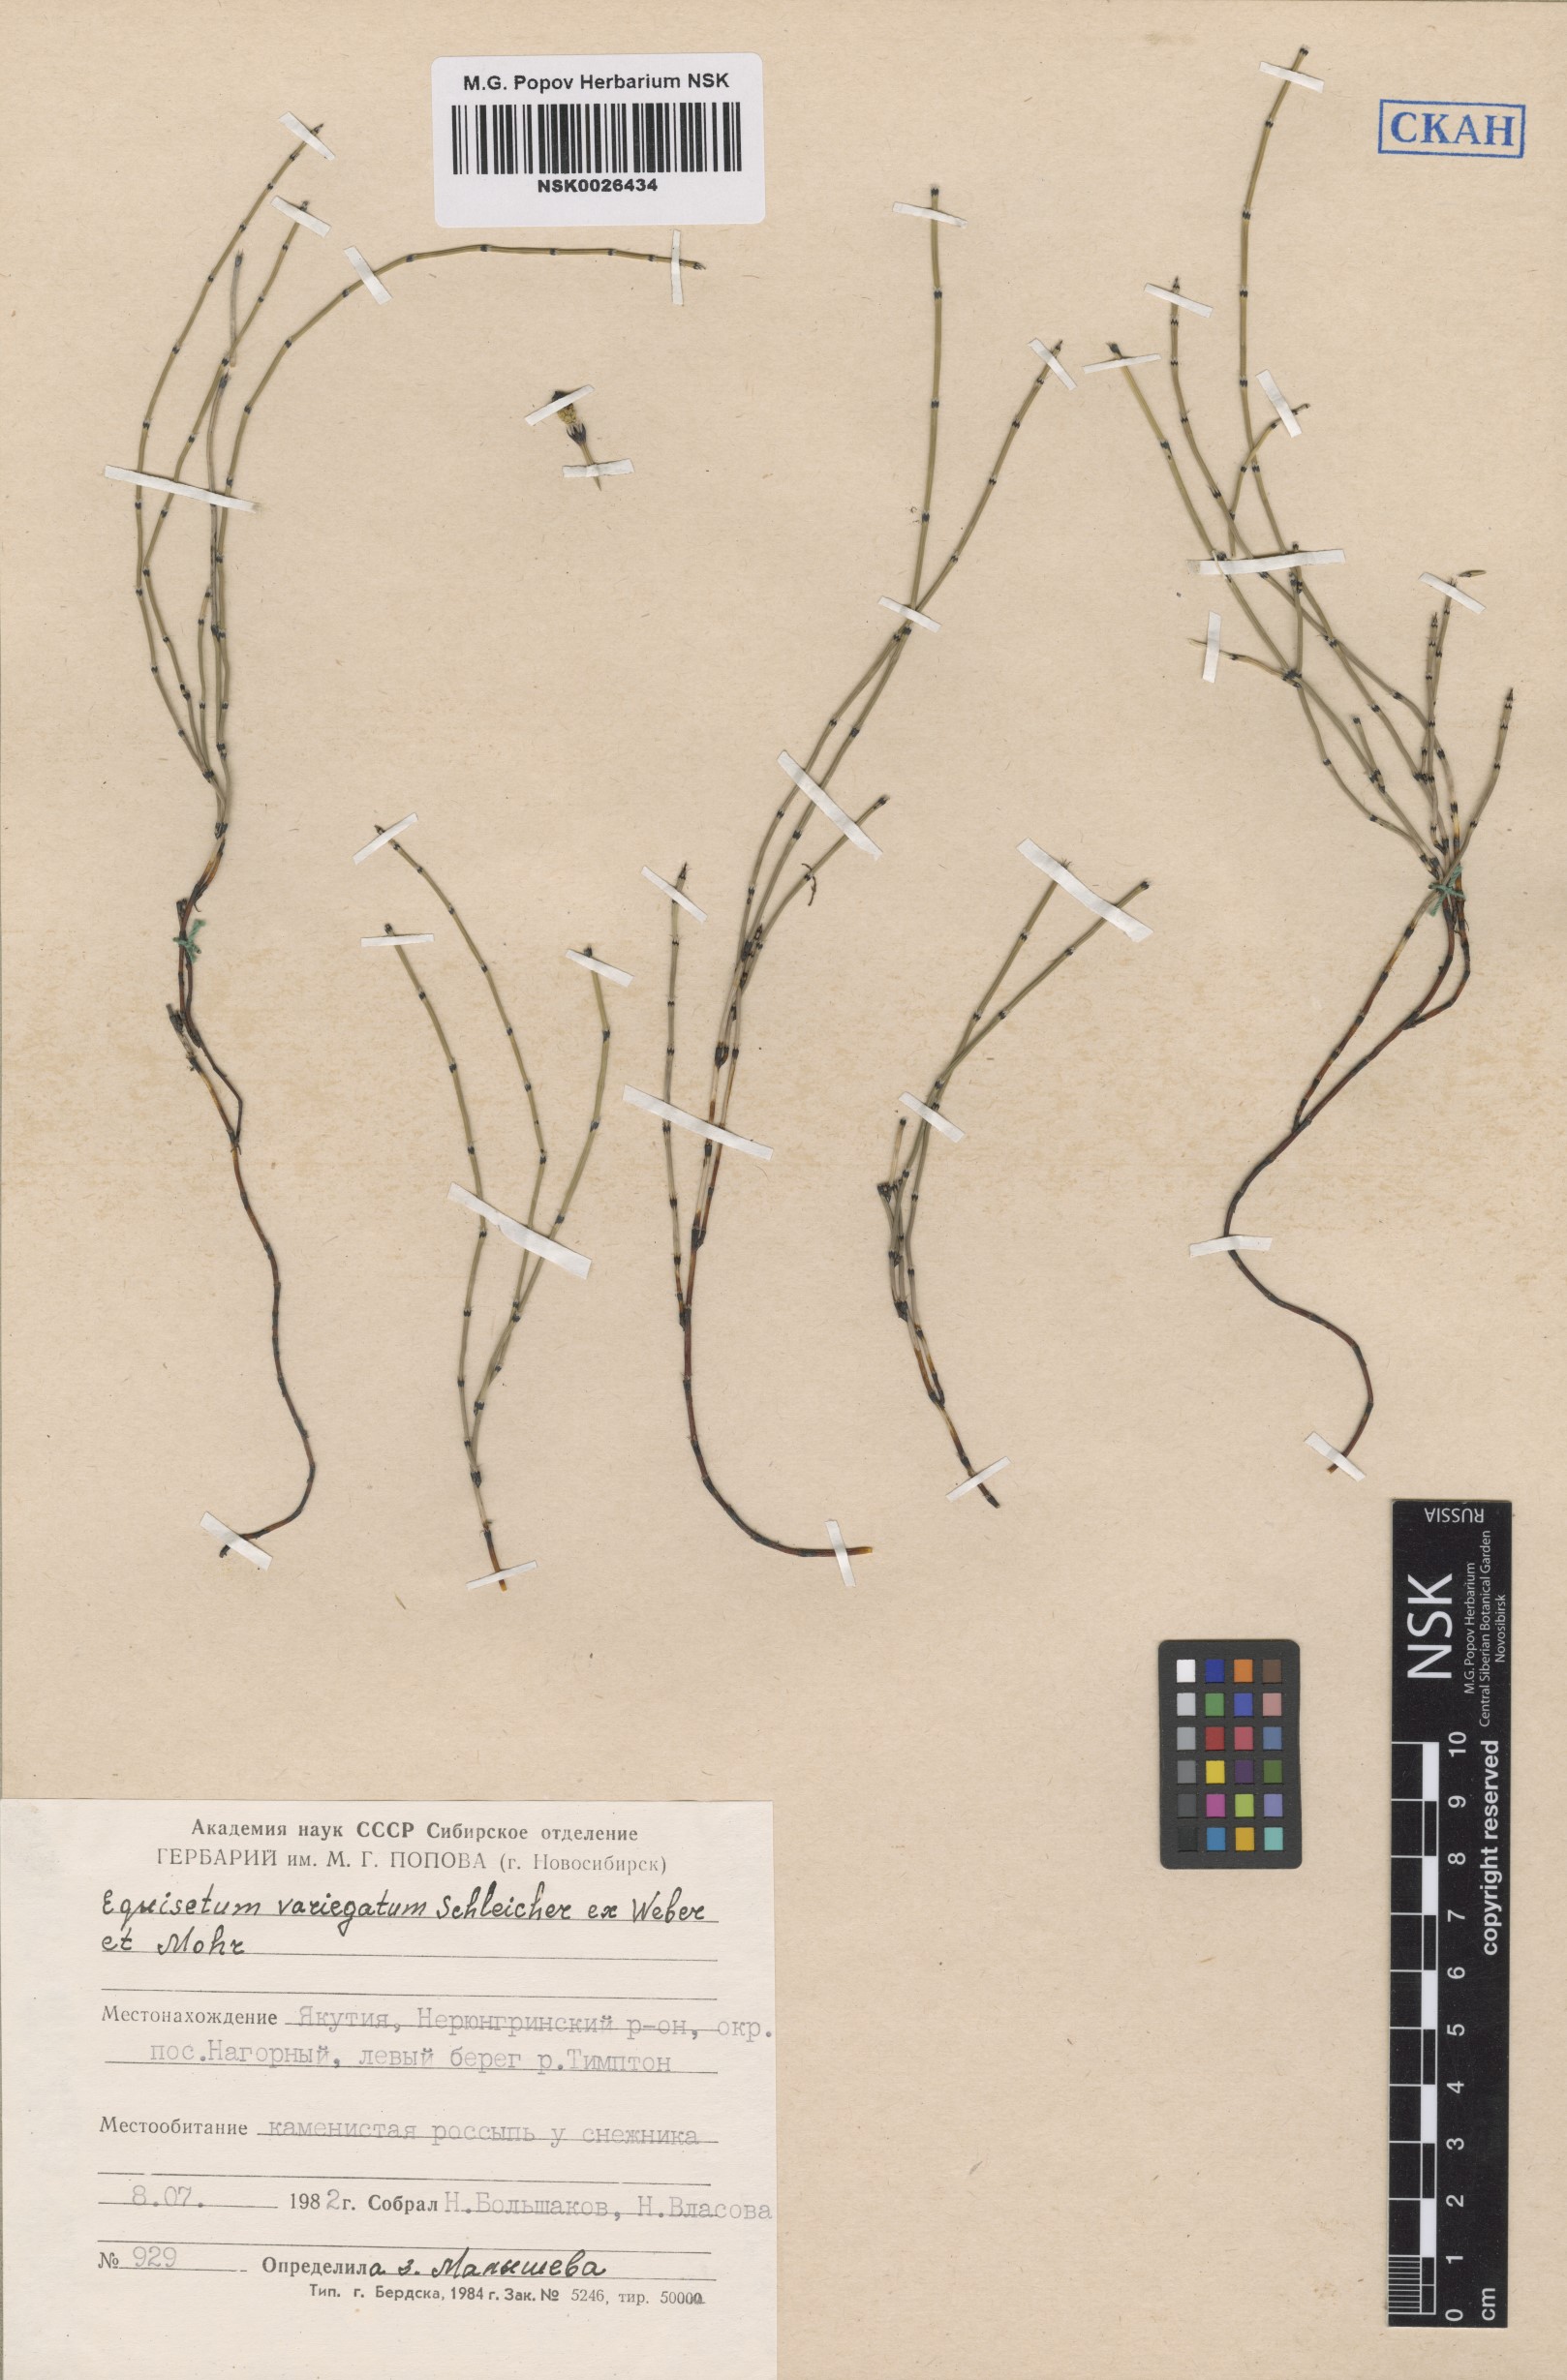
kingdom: Plantae
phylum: Tracheophyta
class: Polypodiopsida
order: Equisetales
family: Equisetaceae
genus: Equisetum
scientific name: Equisetum variegatum
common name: Variegated horsetail
